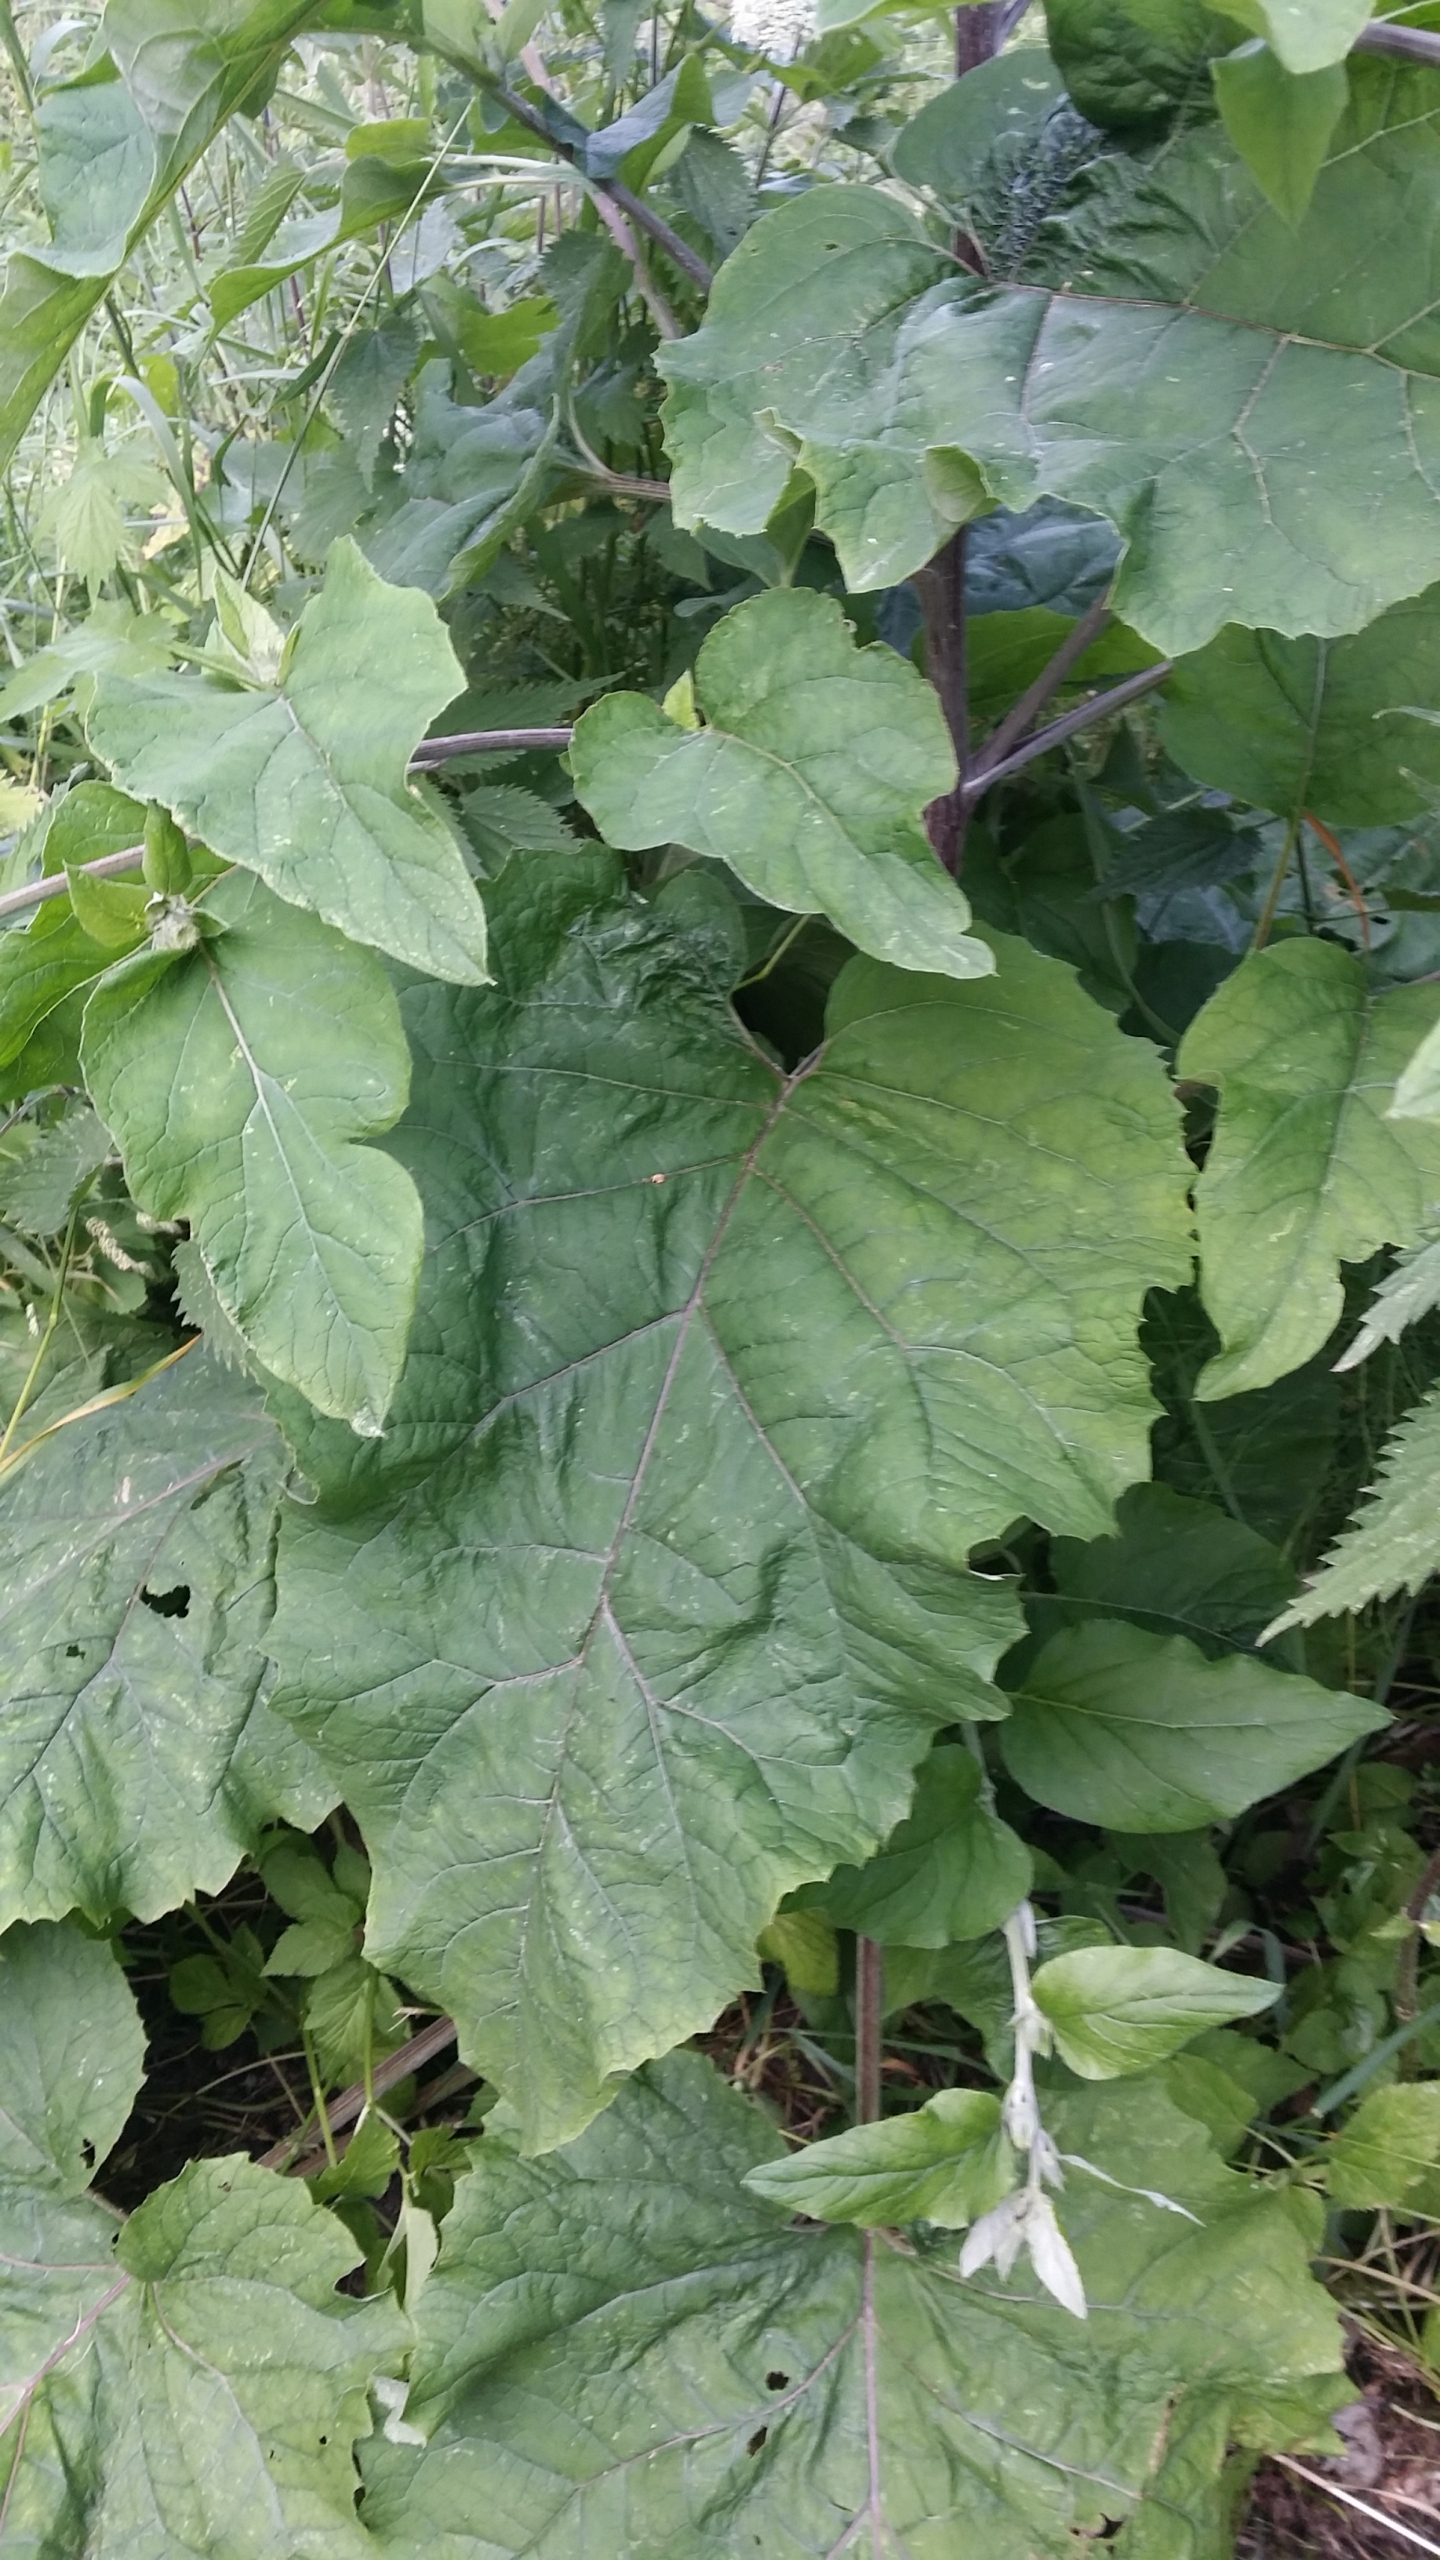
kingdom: Plantae
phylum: Tracheophyta
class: Magnoliopsida
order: Asterales
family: Asteraceae
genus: Arctium
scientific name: Arctium nemorosum
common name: Skov-burre
